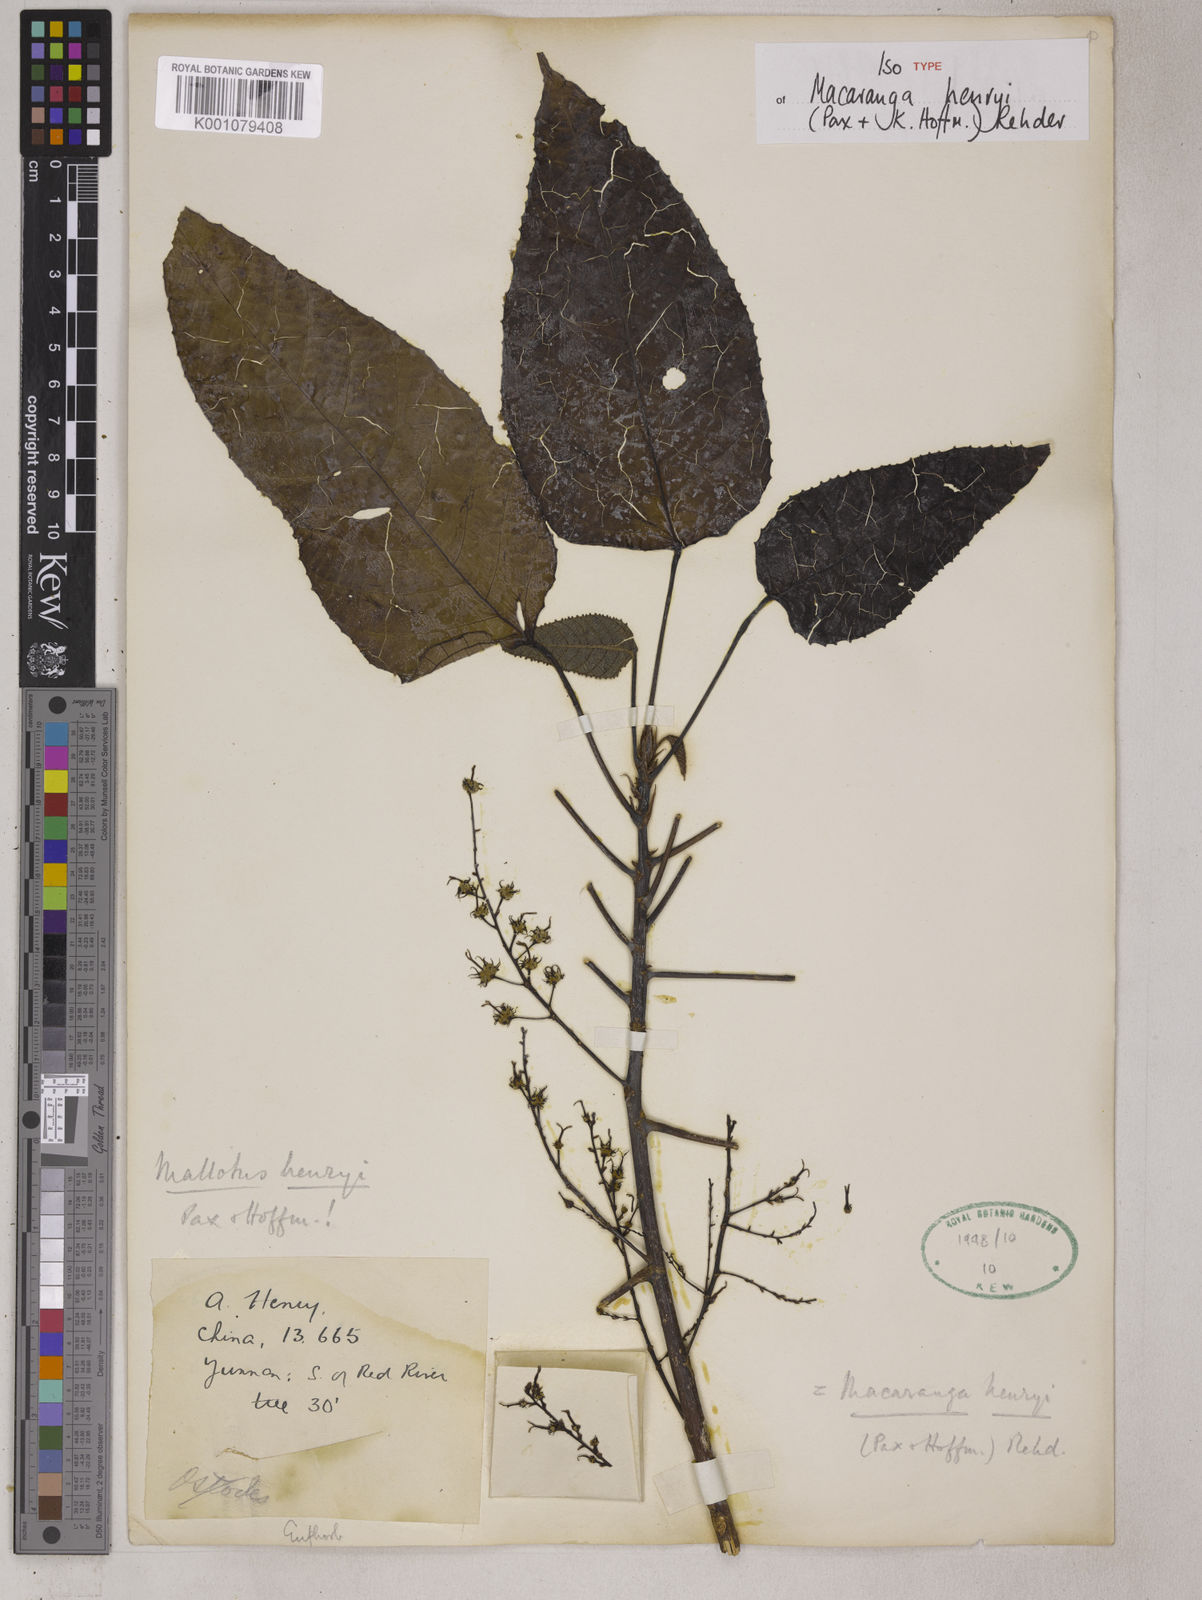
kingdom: Plantae
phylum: Tracheophyta
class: Magnoliopsida
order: Malpighiales
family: Euphorbiaceae
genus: Macaranga
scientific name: Macaranga henryi
